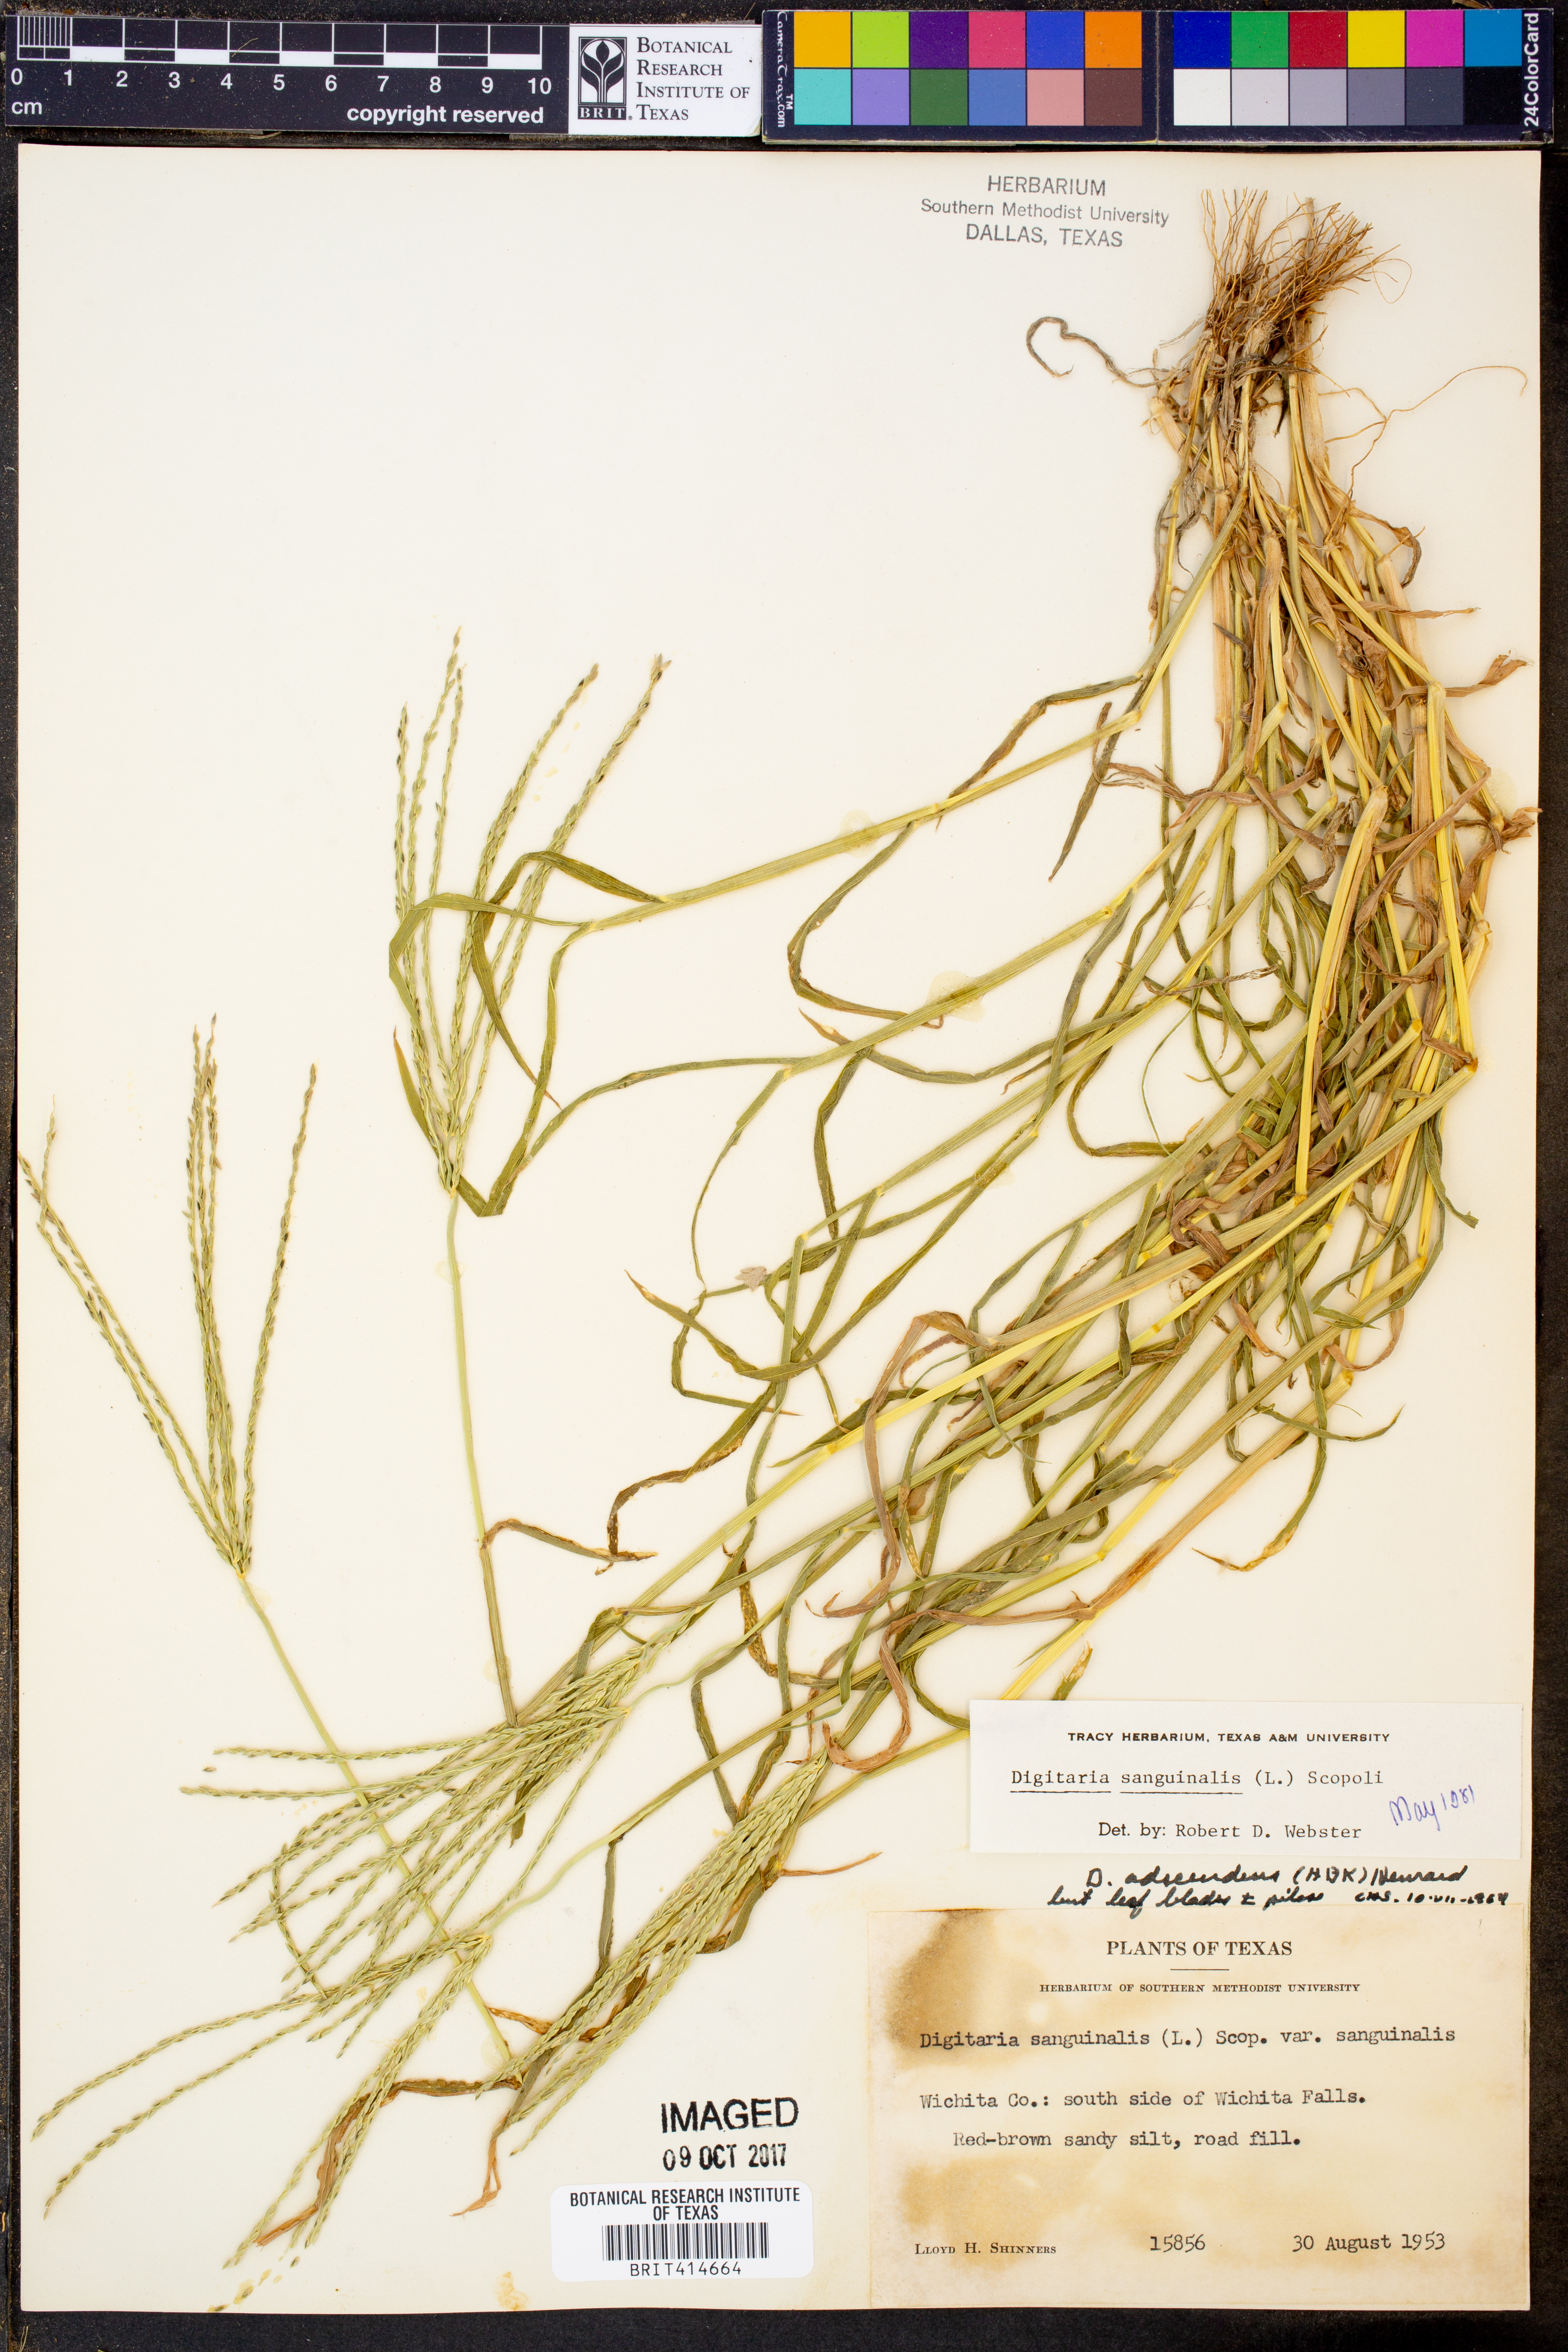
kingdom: Plantae
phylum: Tracheophyta
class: Liliopsida
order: Poales
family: Poaceae
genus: Digitaria
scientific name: Digitaria sanguinalis
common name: Hairy crabgrass
